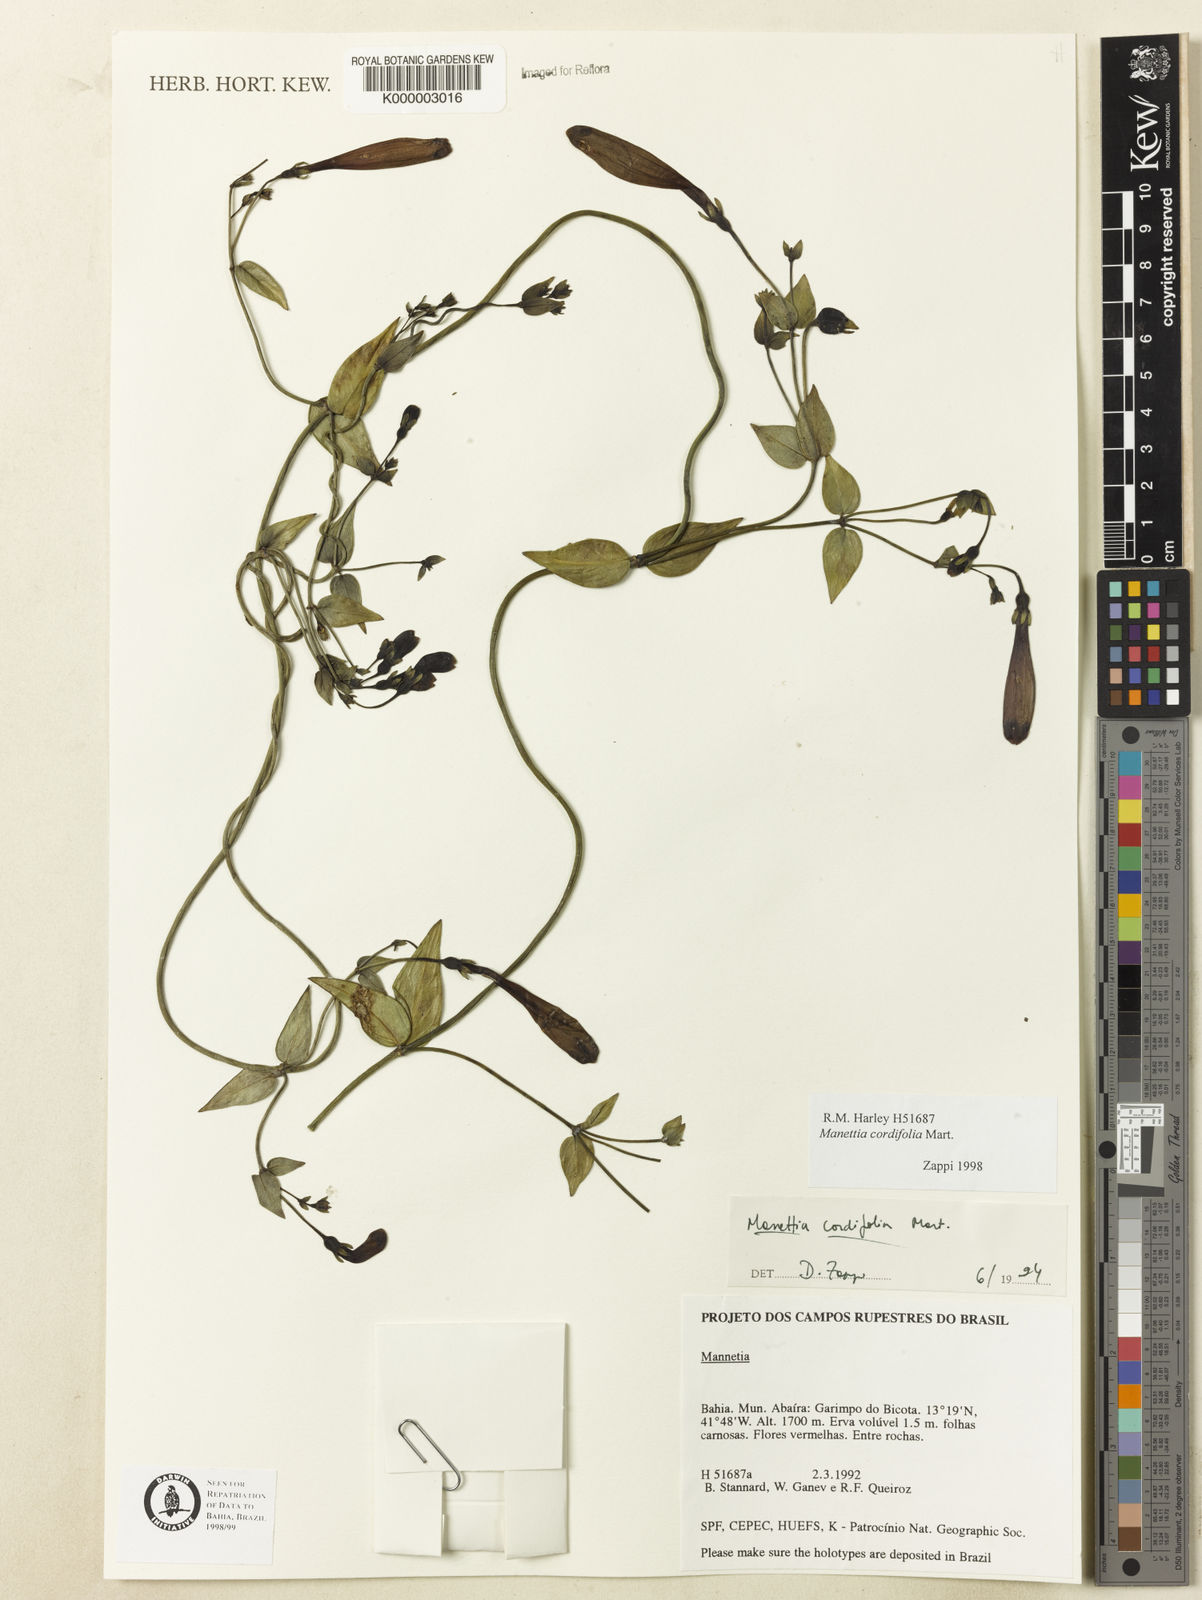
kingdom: Plantae
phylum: Tracheophyta
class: Magnoliopsida
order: Gentianales
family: Rubiaceae
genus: Manettia
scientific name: Manettia cordifolia
